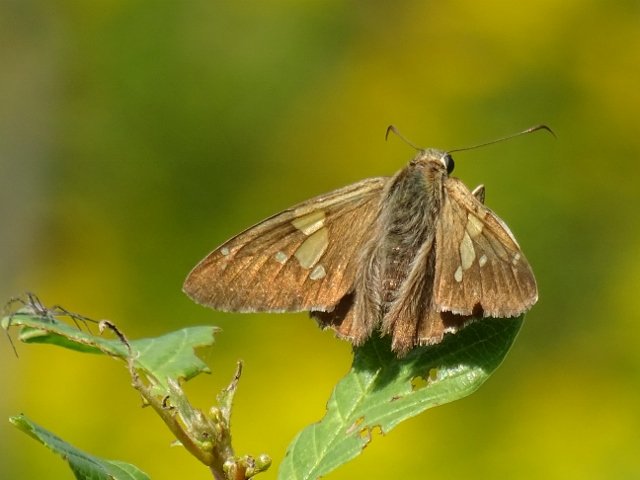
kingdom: Animalia
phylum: Arthropoda
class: Insecta
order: Lepidoptera
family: Hesperiidae
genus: Epargyreus
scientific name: Epargyreus clarus
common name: Silver-spotted Skipper
